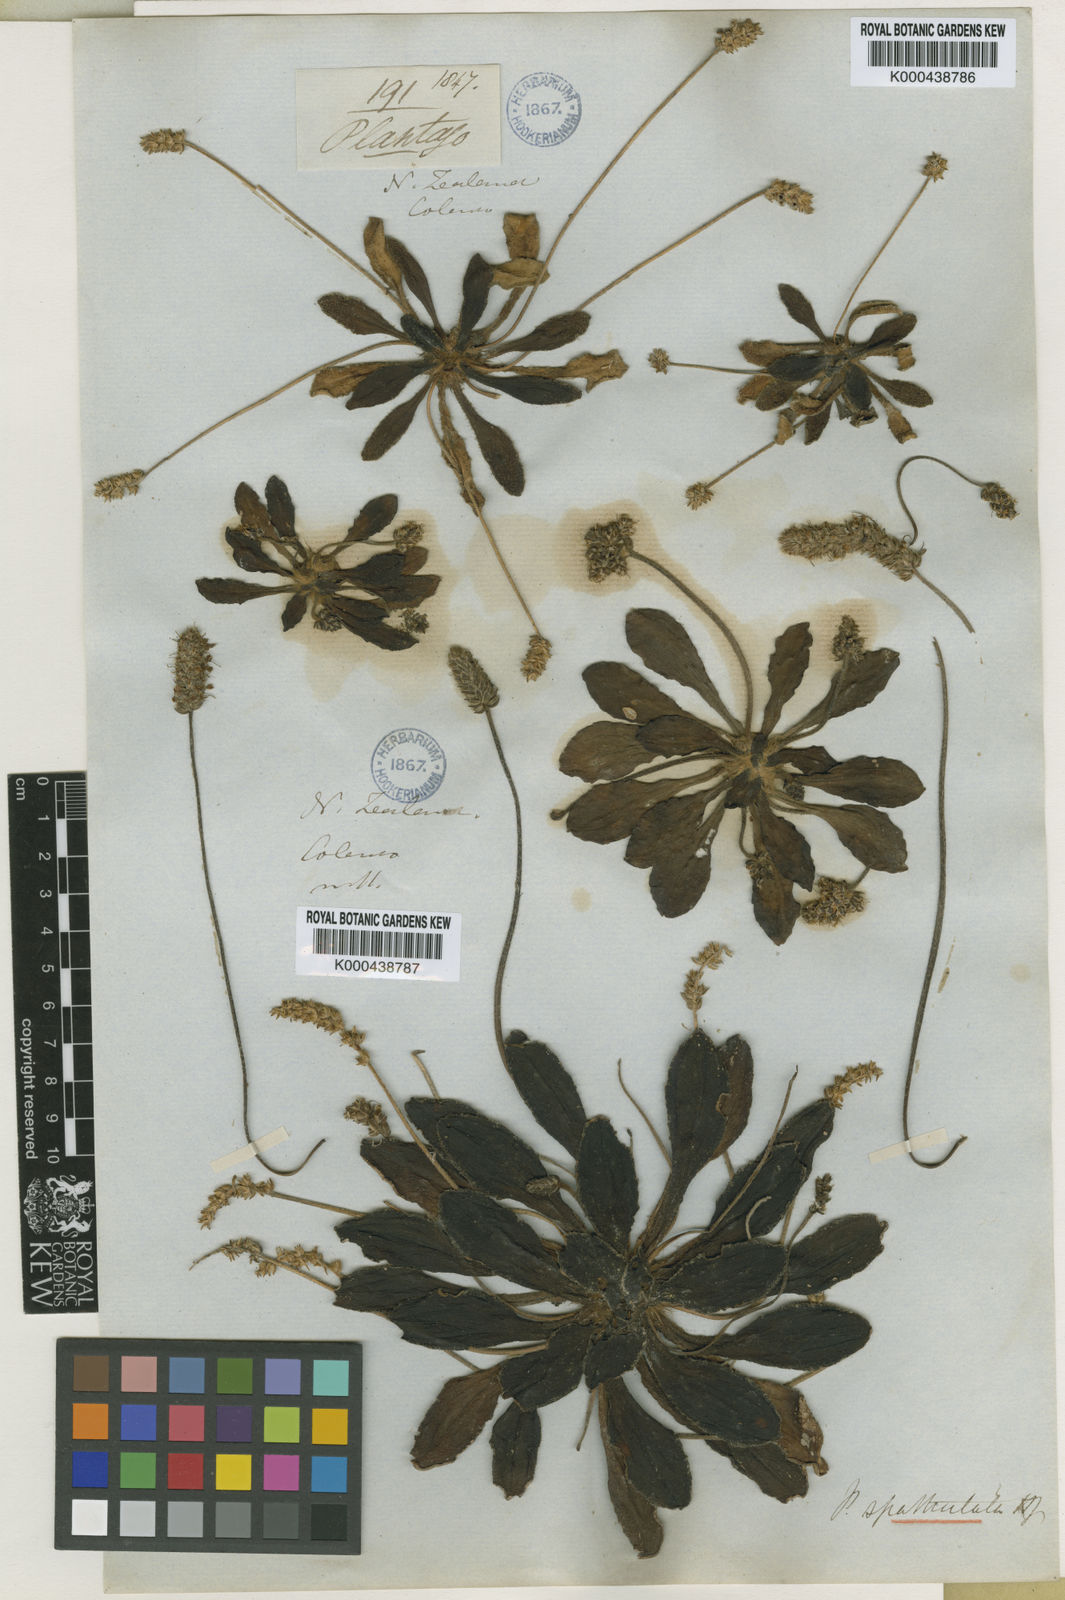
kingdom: Plantae
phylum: Tracheophyta
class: Magnoliopsida
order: Lamiales
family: Plantaginaceae
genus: Plantago
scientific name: Plantago spathulata
